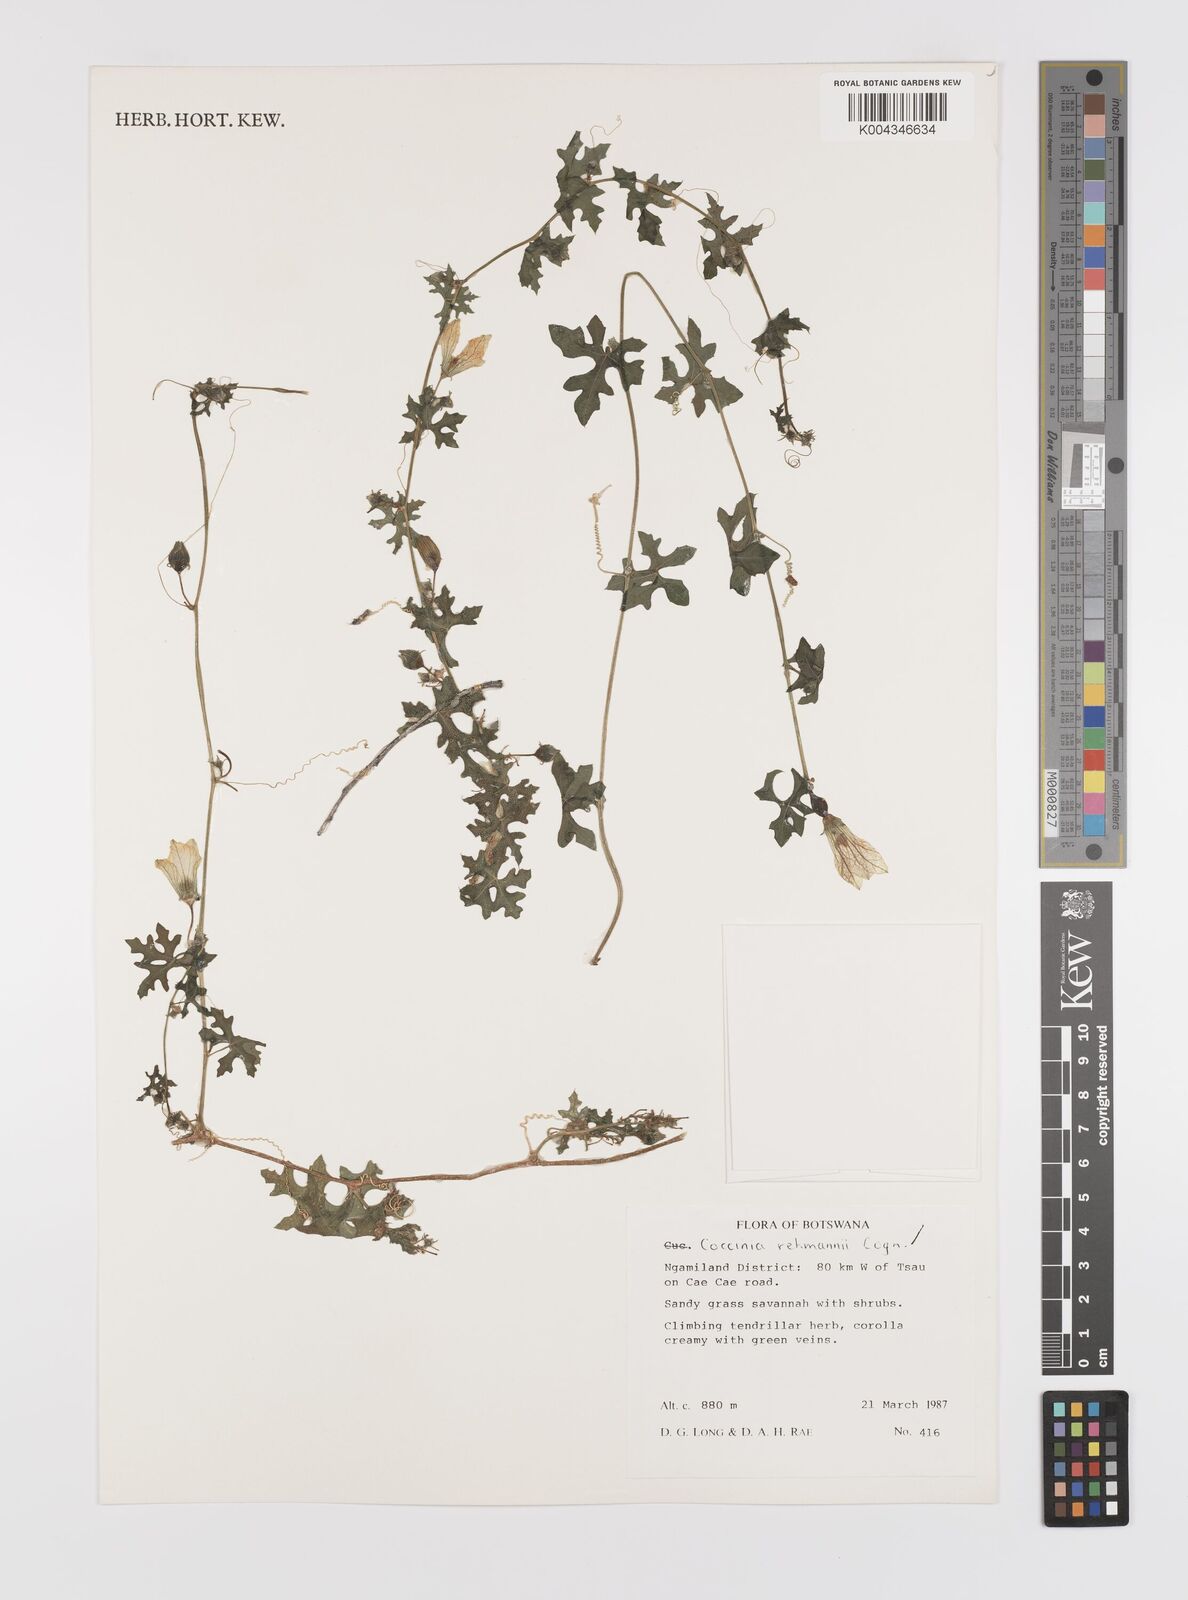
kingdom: Plantae
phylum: Tracheophyta
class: Magnoliopsida
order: Cucurbitales
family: Cucurbitaceae
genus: Coccinia
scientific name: Coccinia rehmannii
